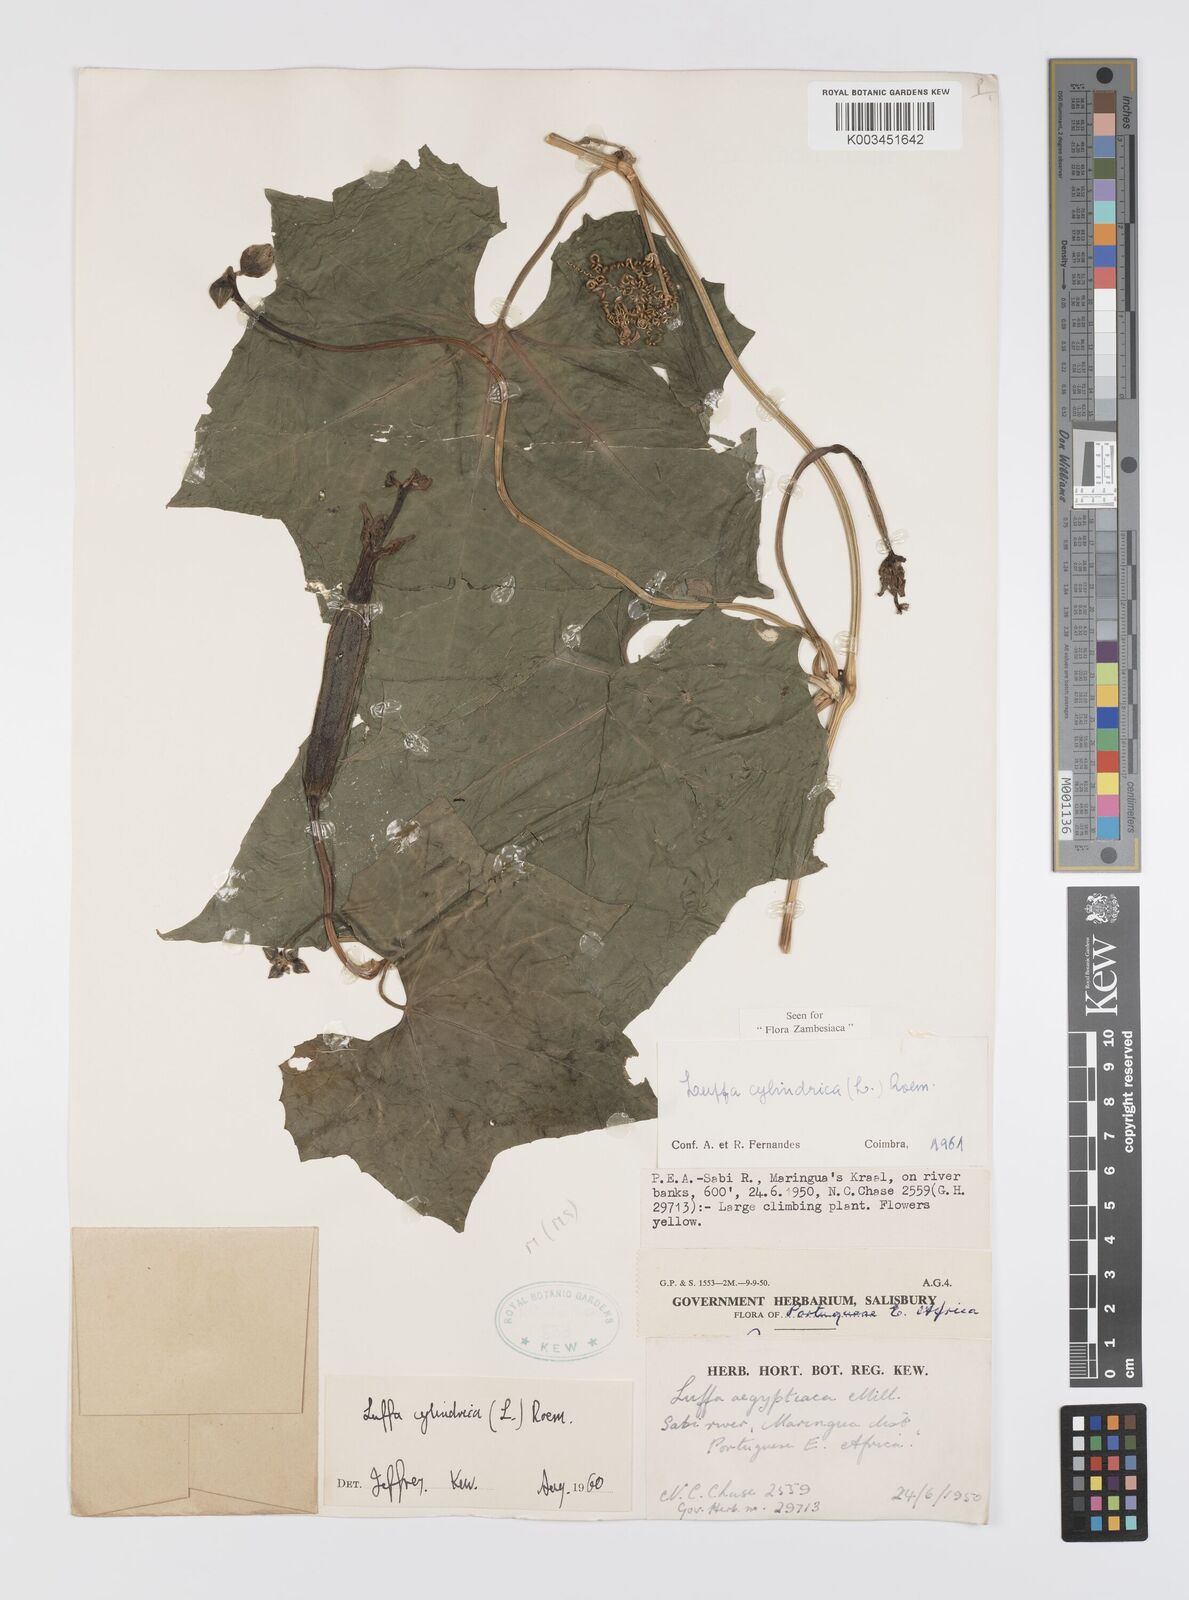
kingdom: Plantae
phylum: Tracheophyta
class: Magnoliopsida
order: Cucurbitales
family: Cucurbitaceae
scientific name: Cucurbitaceae
